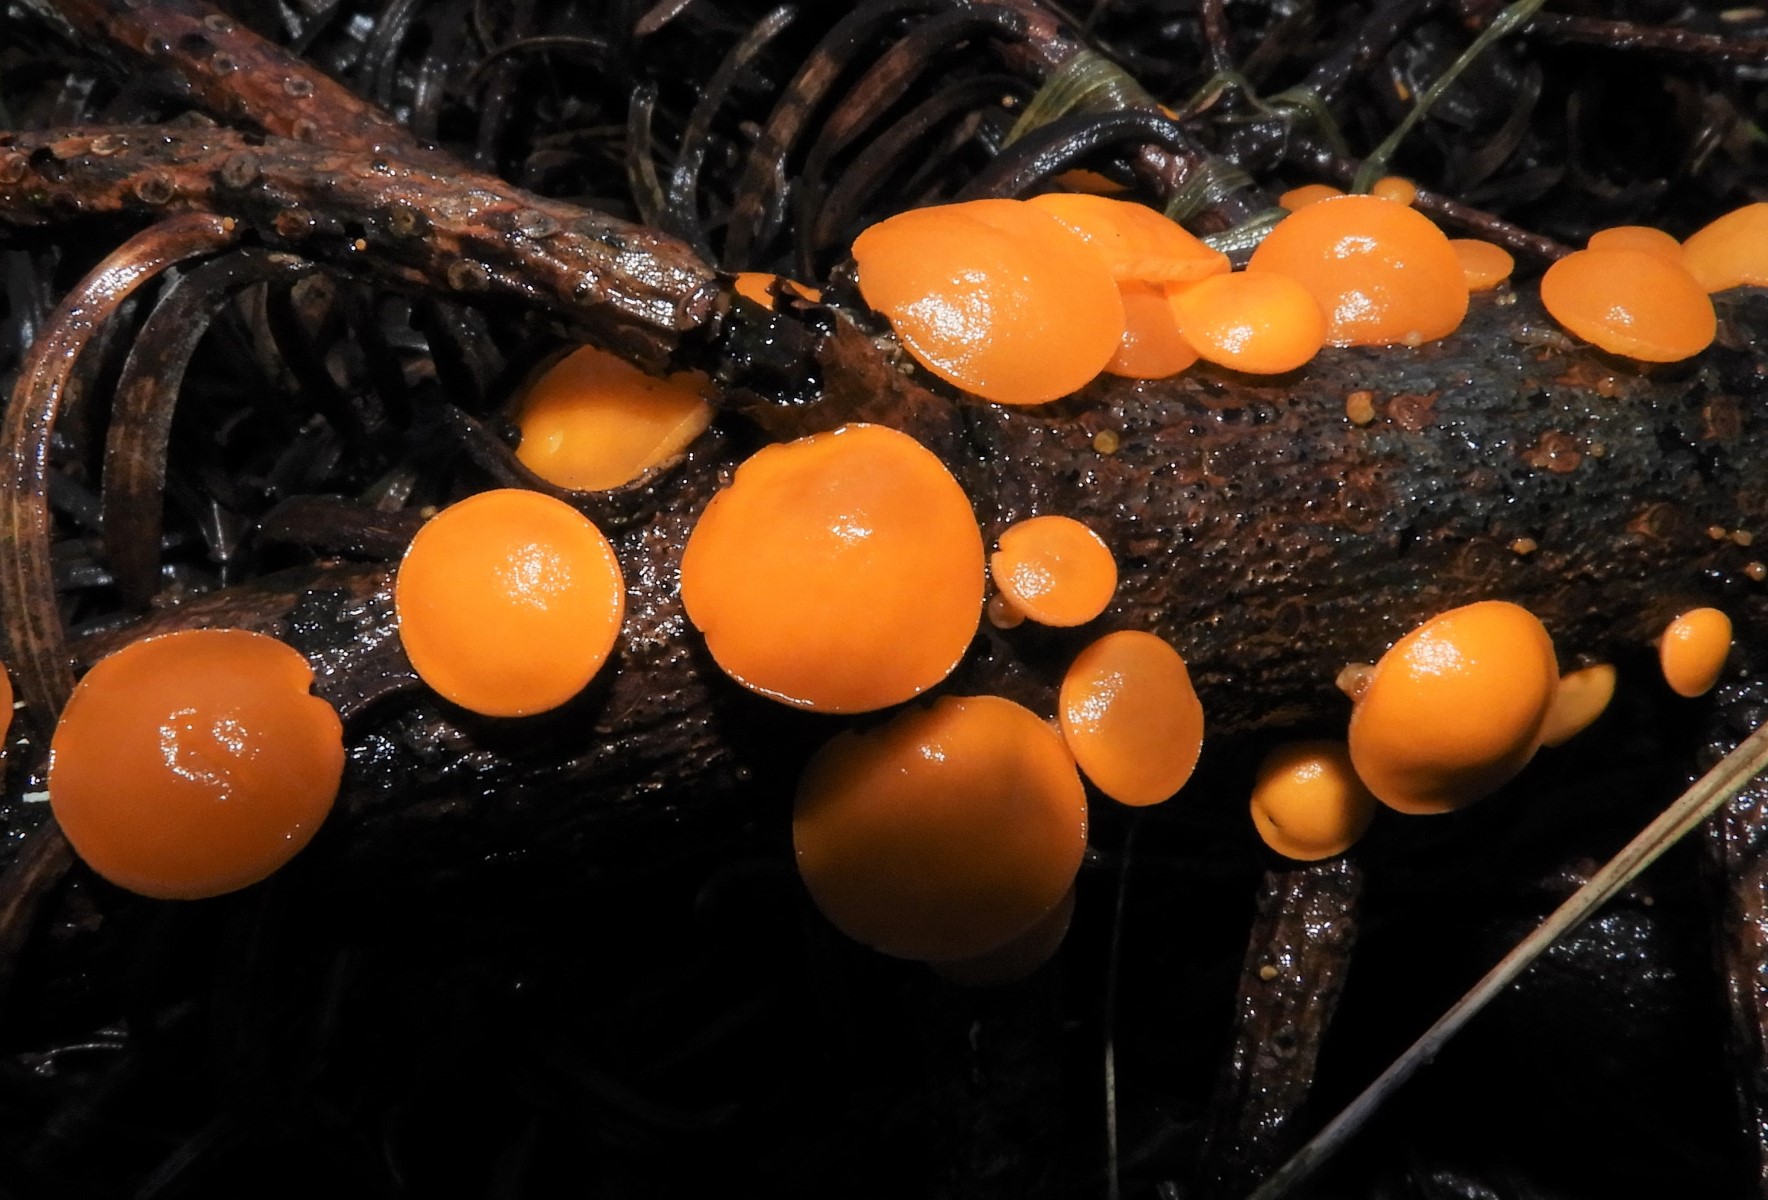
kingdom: Fungi
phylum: Ascomycota
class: Pezizomycetes
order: Pezizales
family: Sarcoscyphaceae
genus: Pithya
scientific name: Pithya vulgaris
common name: stor dukatbæger
